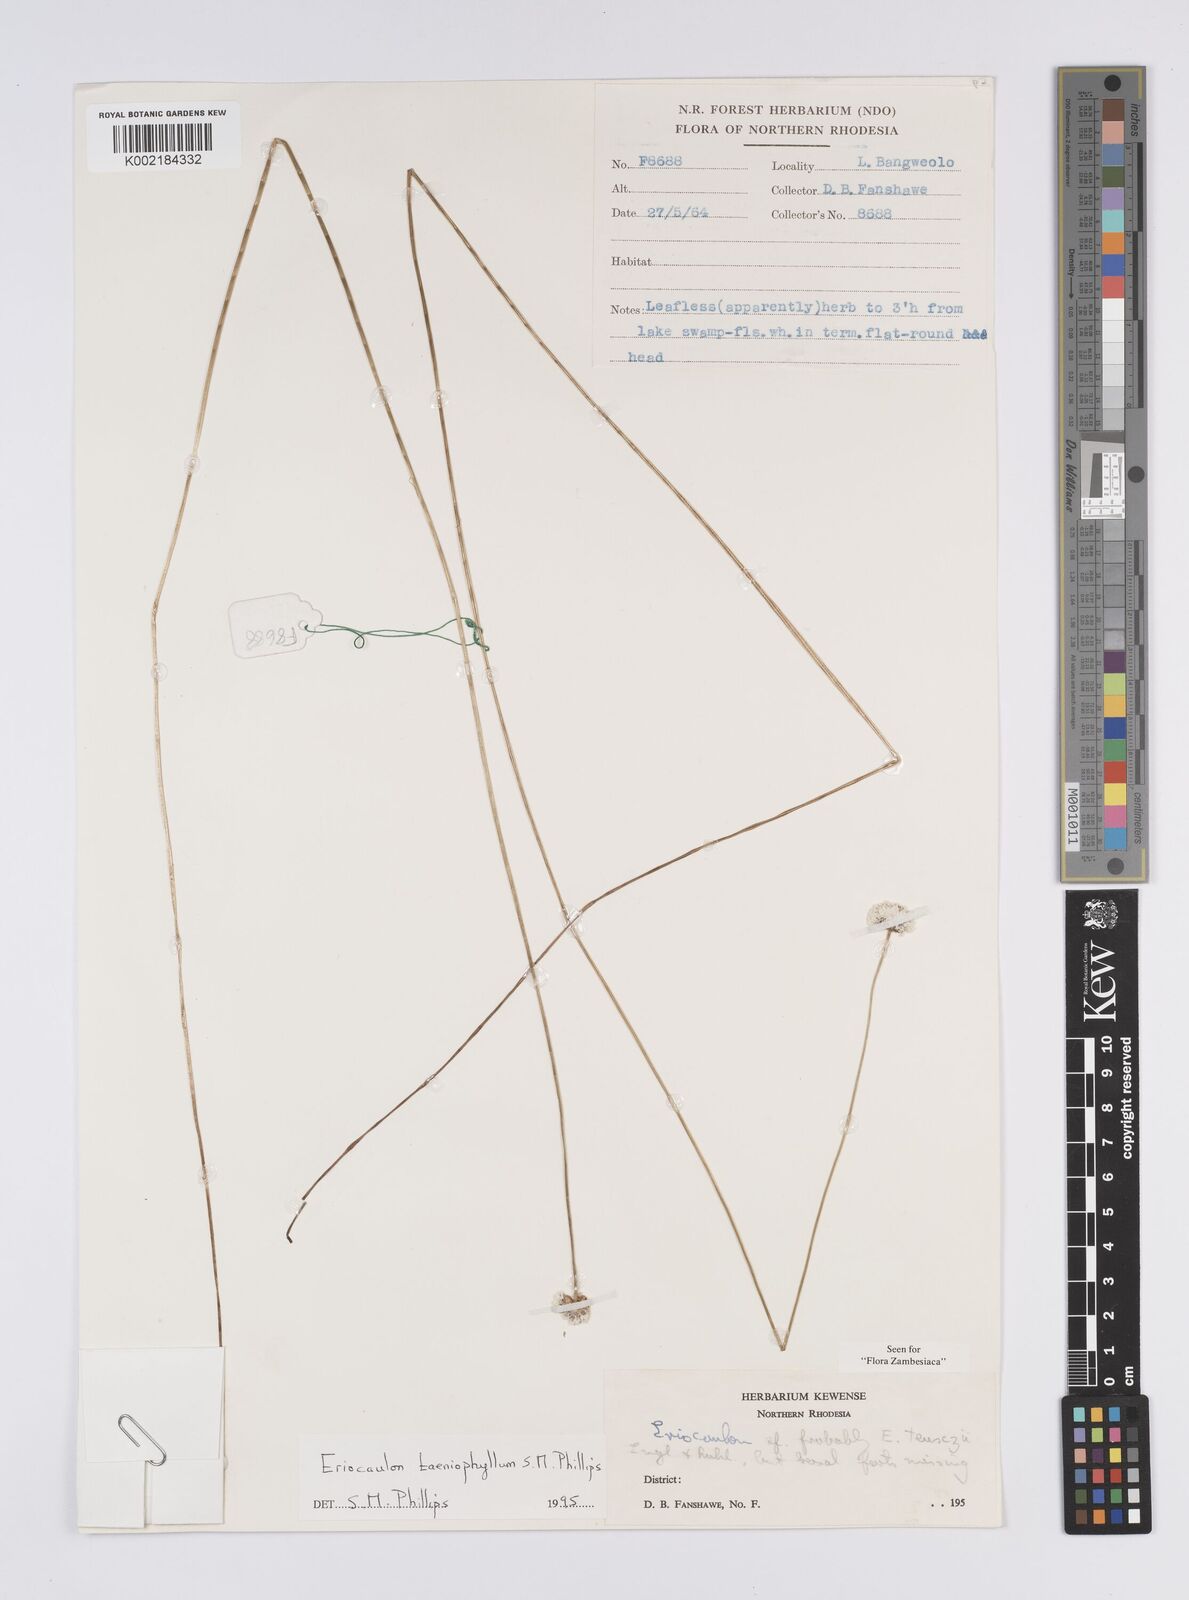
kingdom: Plantae
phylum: Tracheophyta
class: Liliopsida
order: Poales
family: Eriocaulaceae
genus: Eriocaulon
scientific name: Eriocaulon taeniophyllum
